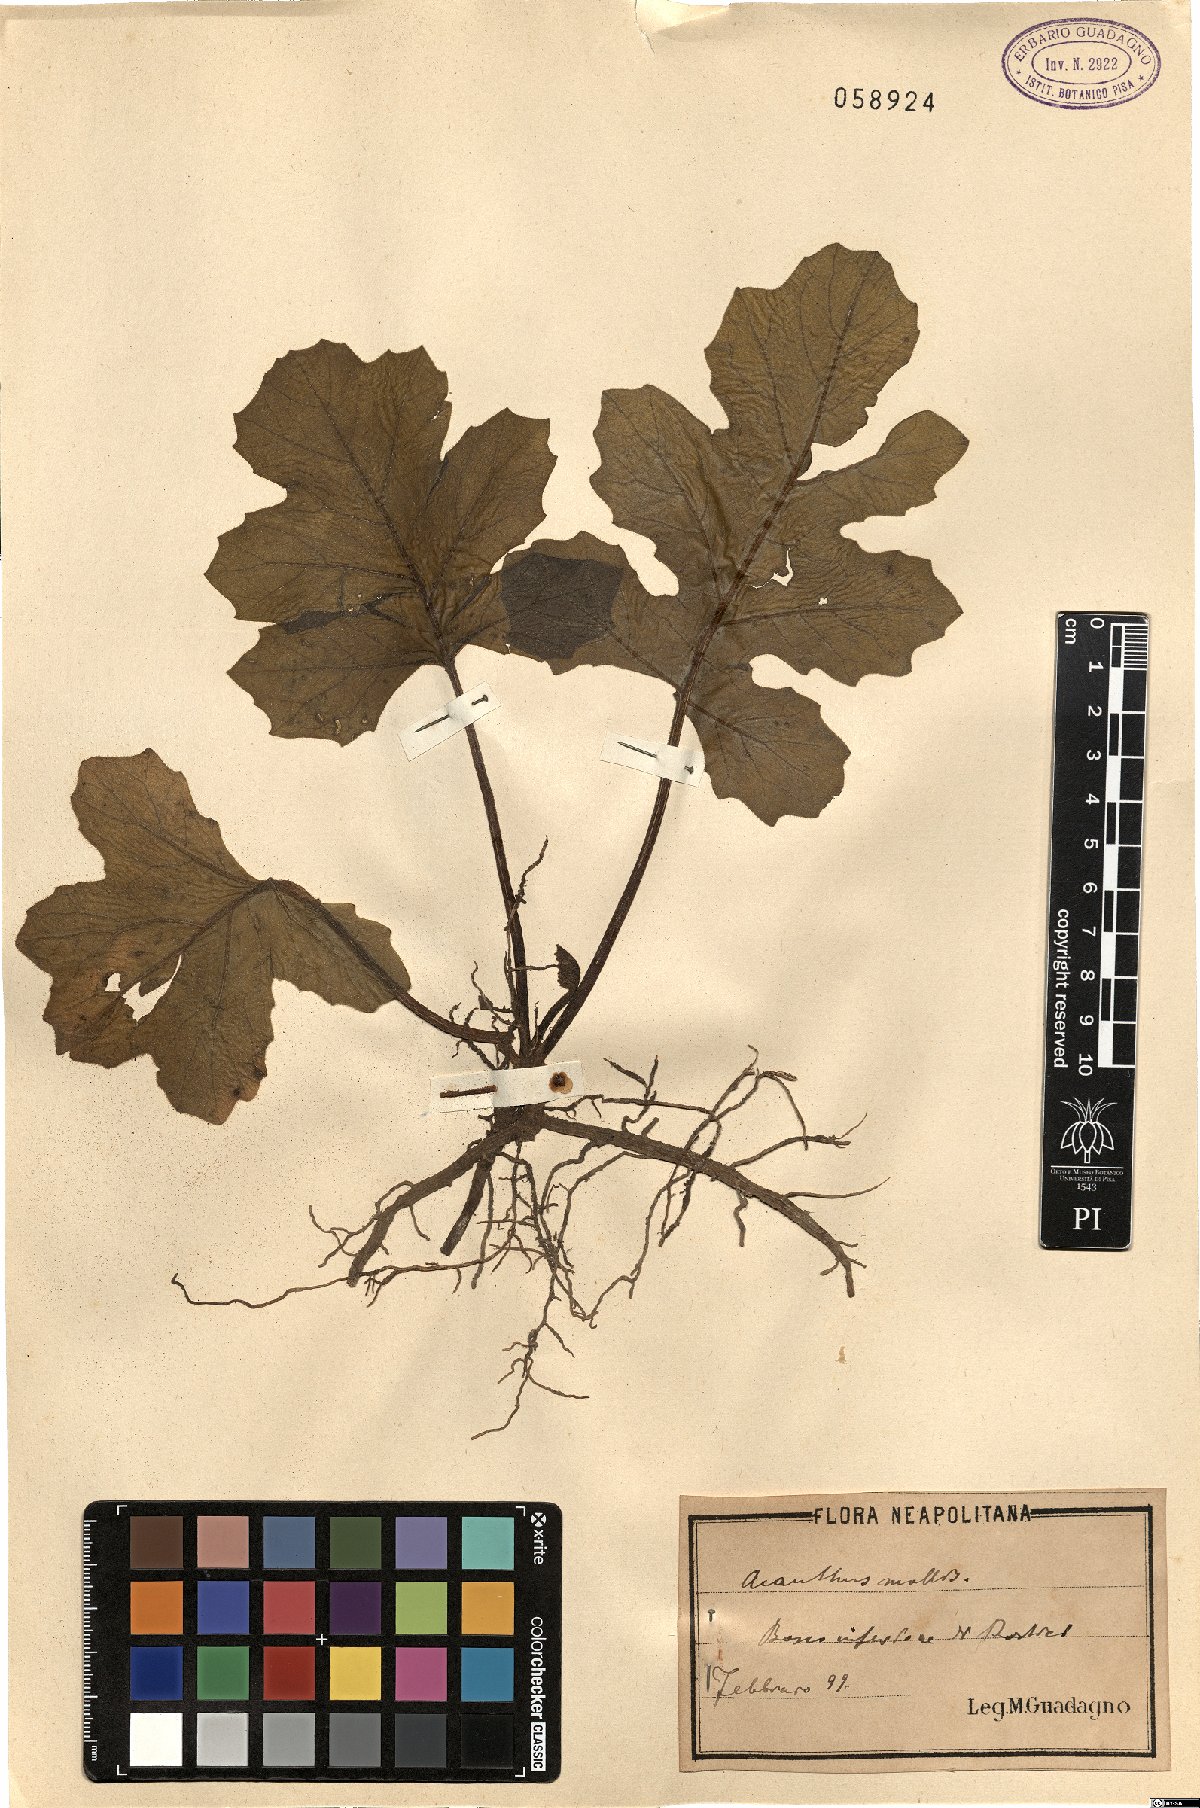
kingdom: Plantae
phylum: Tracheophyta
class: Magnoliopsida
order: Lamiales
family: Acanthaceae
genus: Acanthus
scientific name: Acanthus mollis
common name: Bear's-breech
